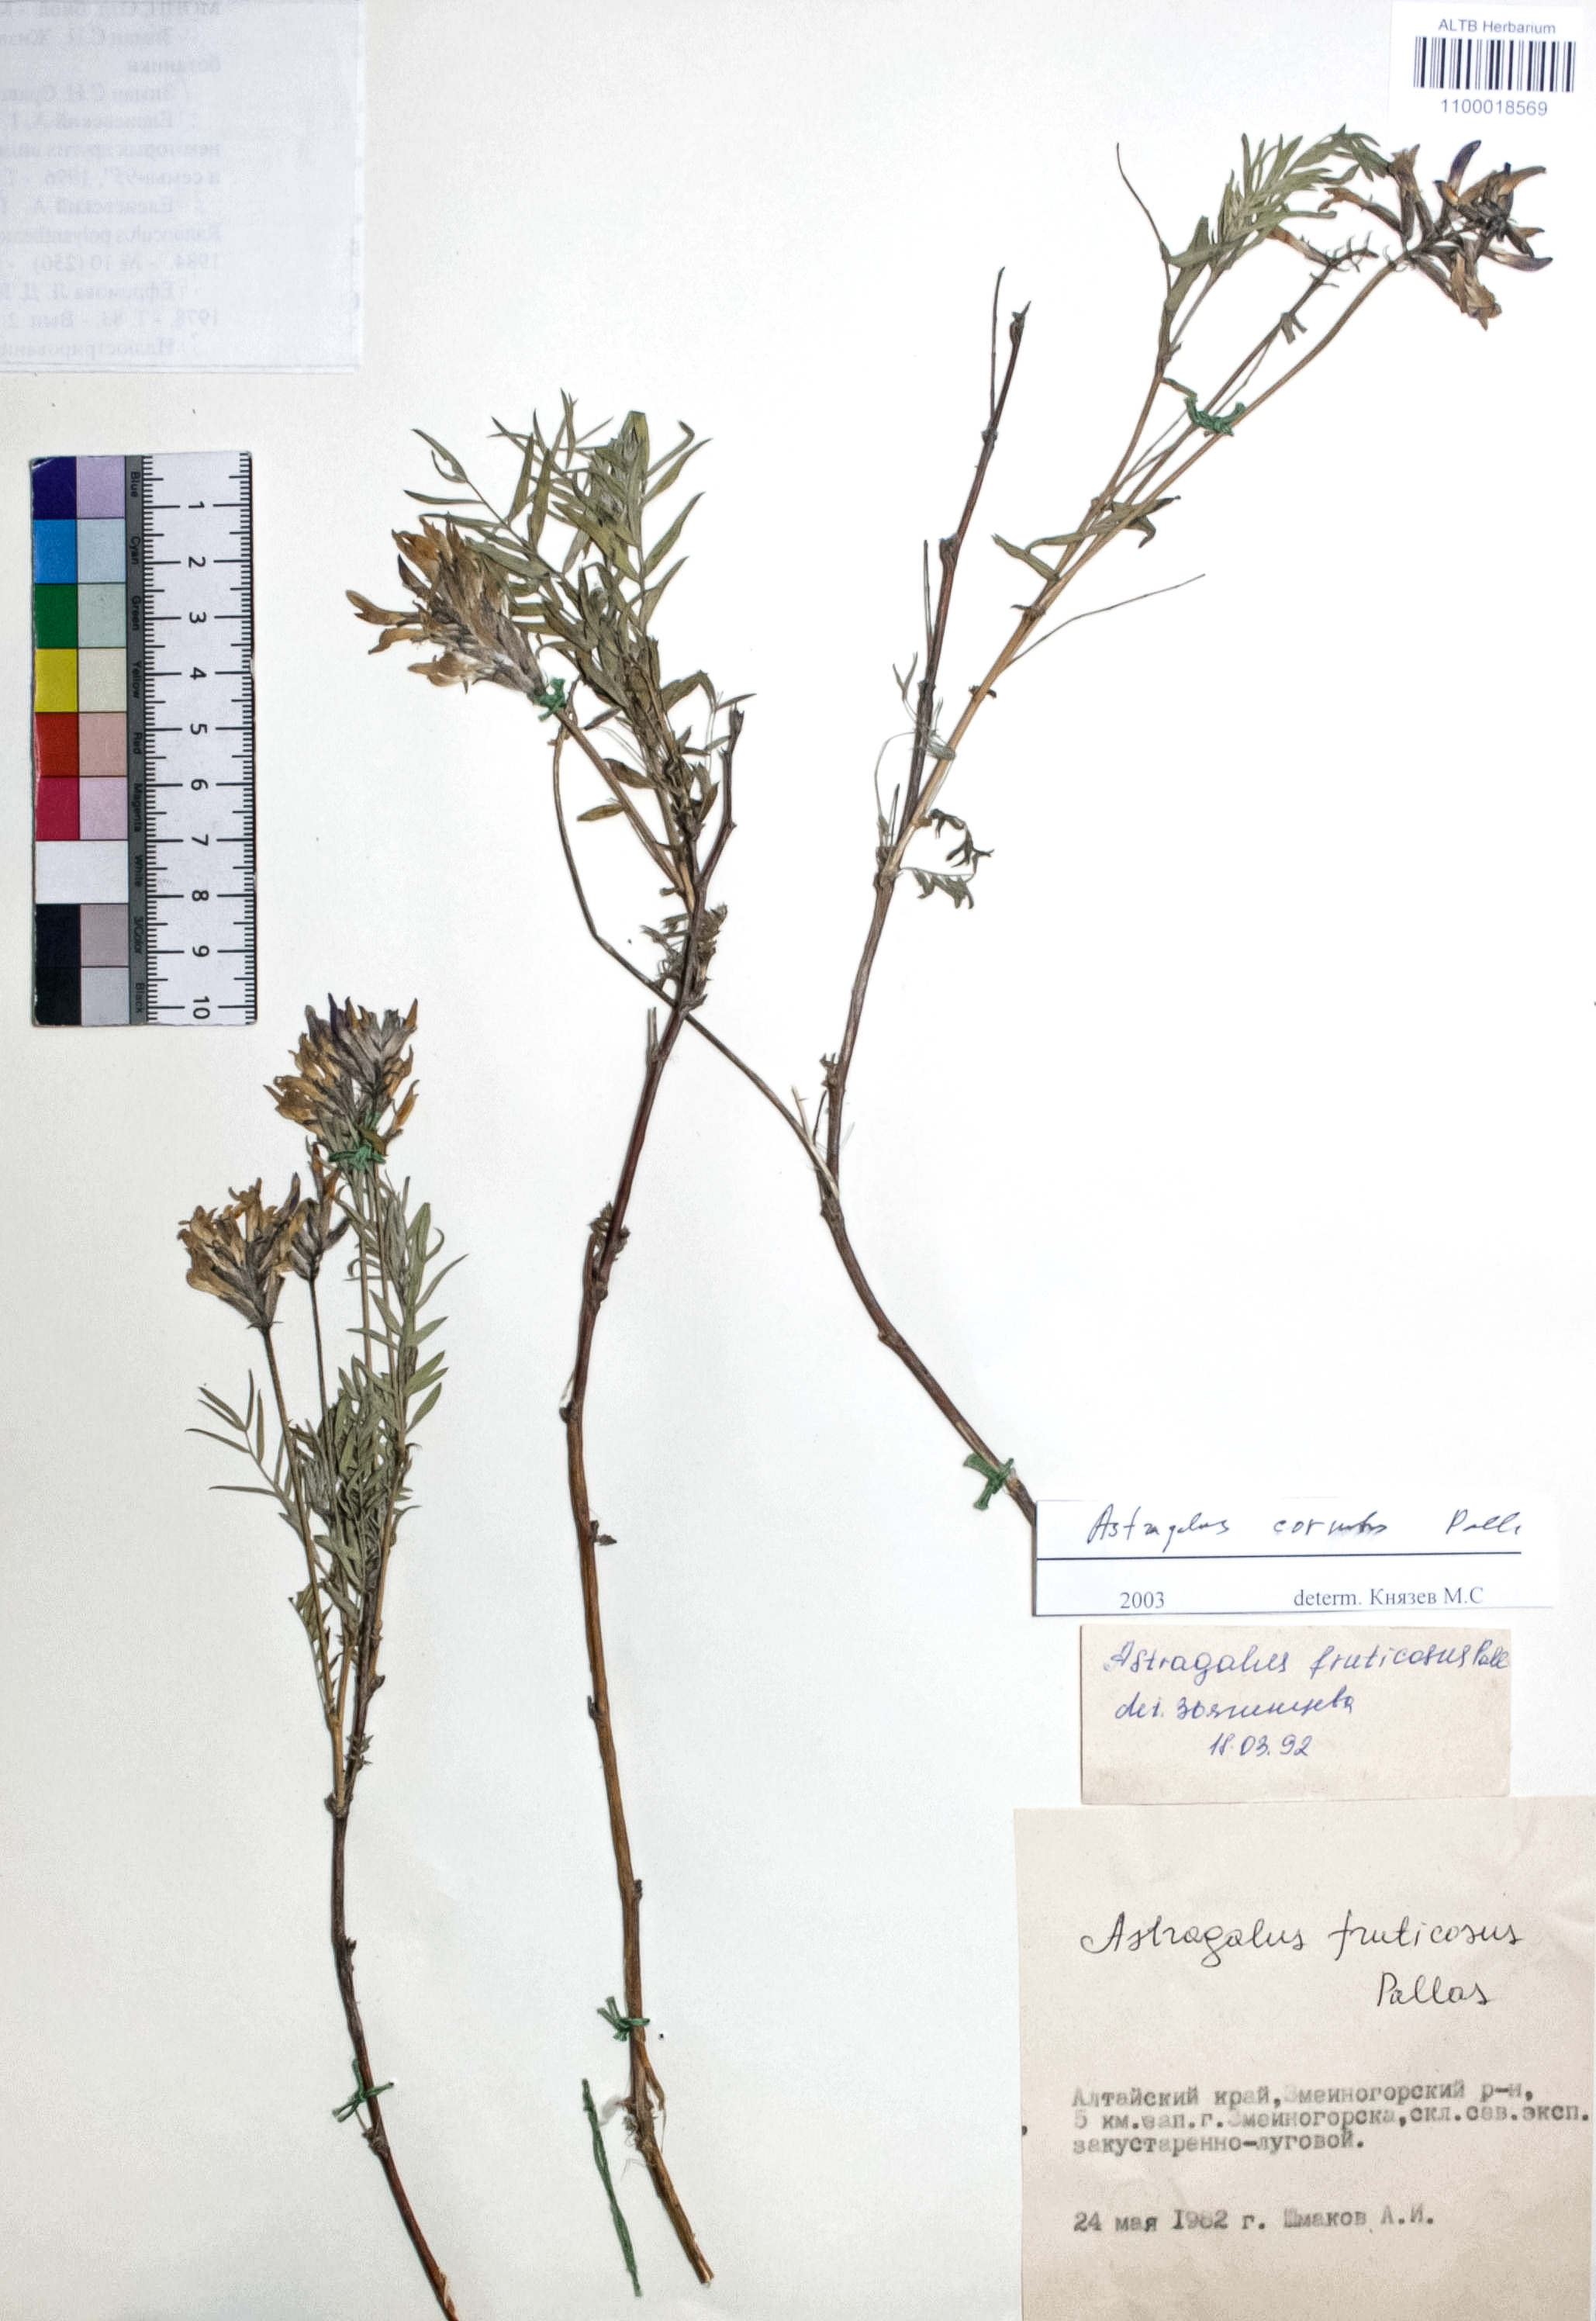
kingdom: Plantae
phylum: Tracheophyta
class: Magnoliopsida
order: Fabales
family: Fabaceae
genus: Astragalus
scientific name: Astragalus cornutus
